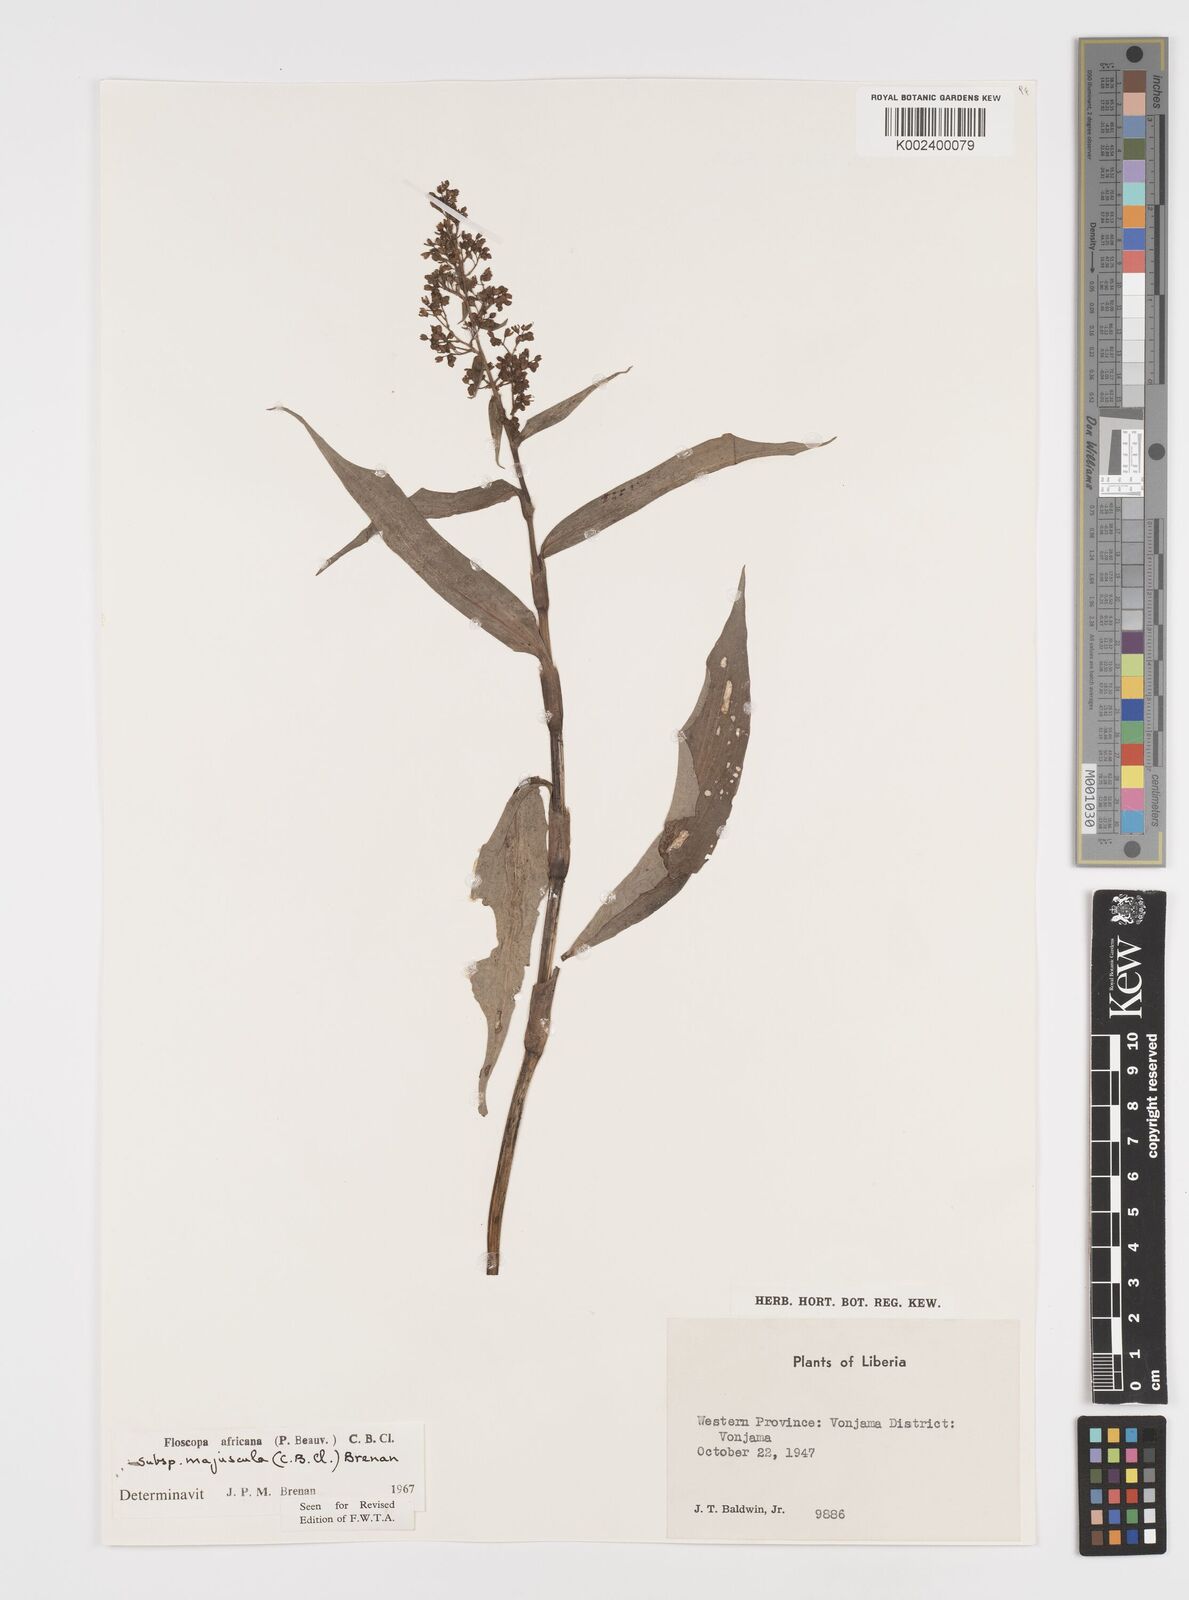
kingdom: Plantae
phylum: Tracheophyta
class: Liliopsida
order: Commelinales
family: Commelinaceae
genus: Floscopa
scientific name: Floscopa africana
